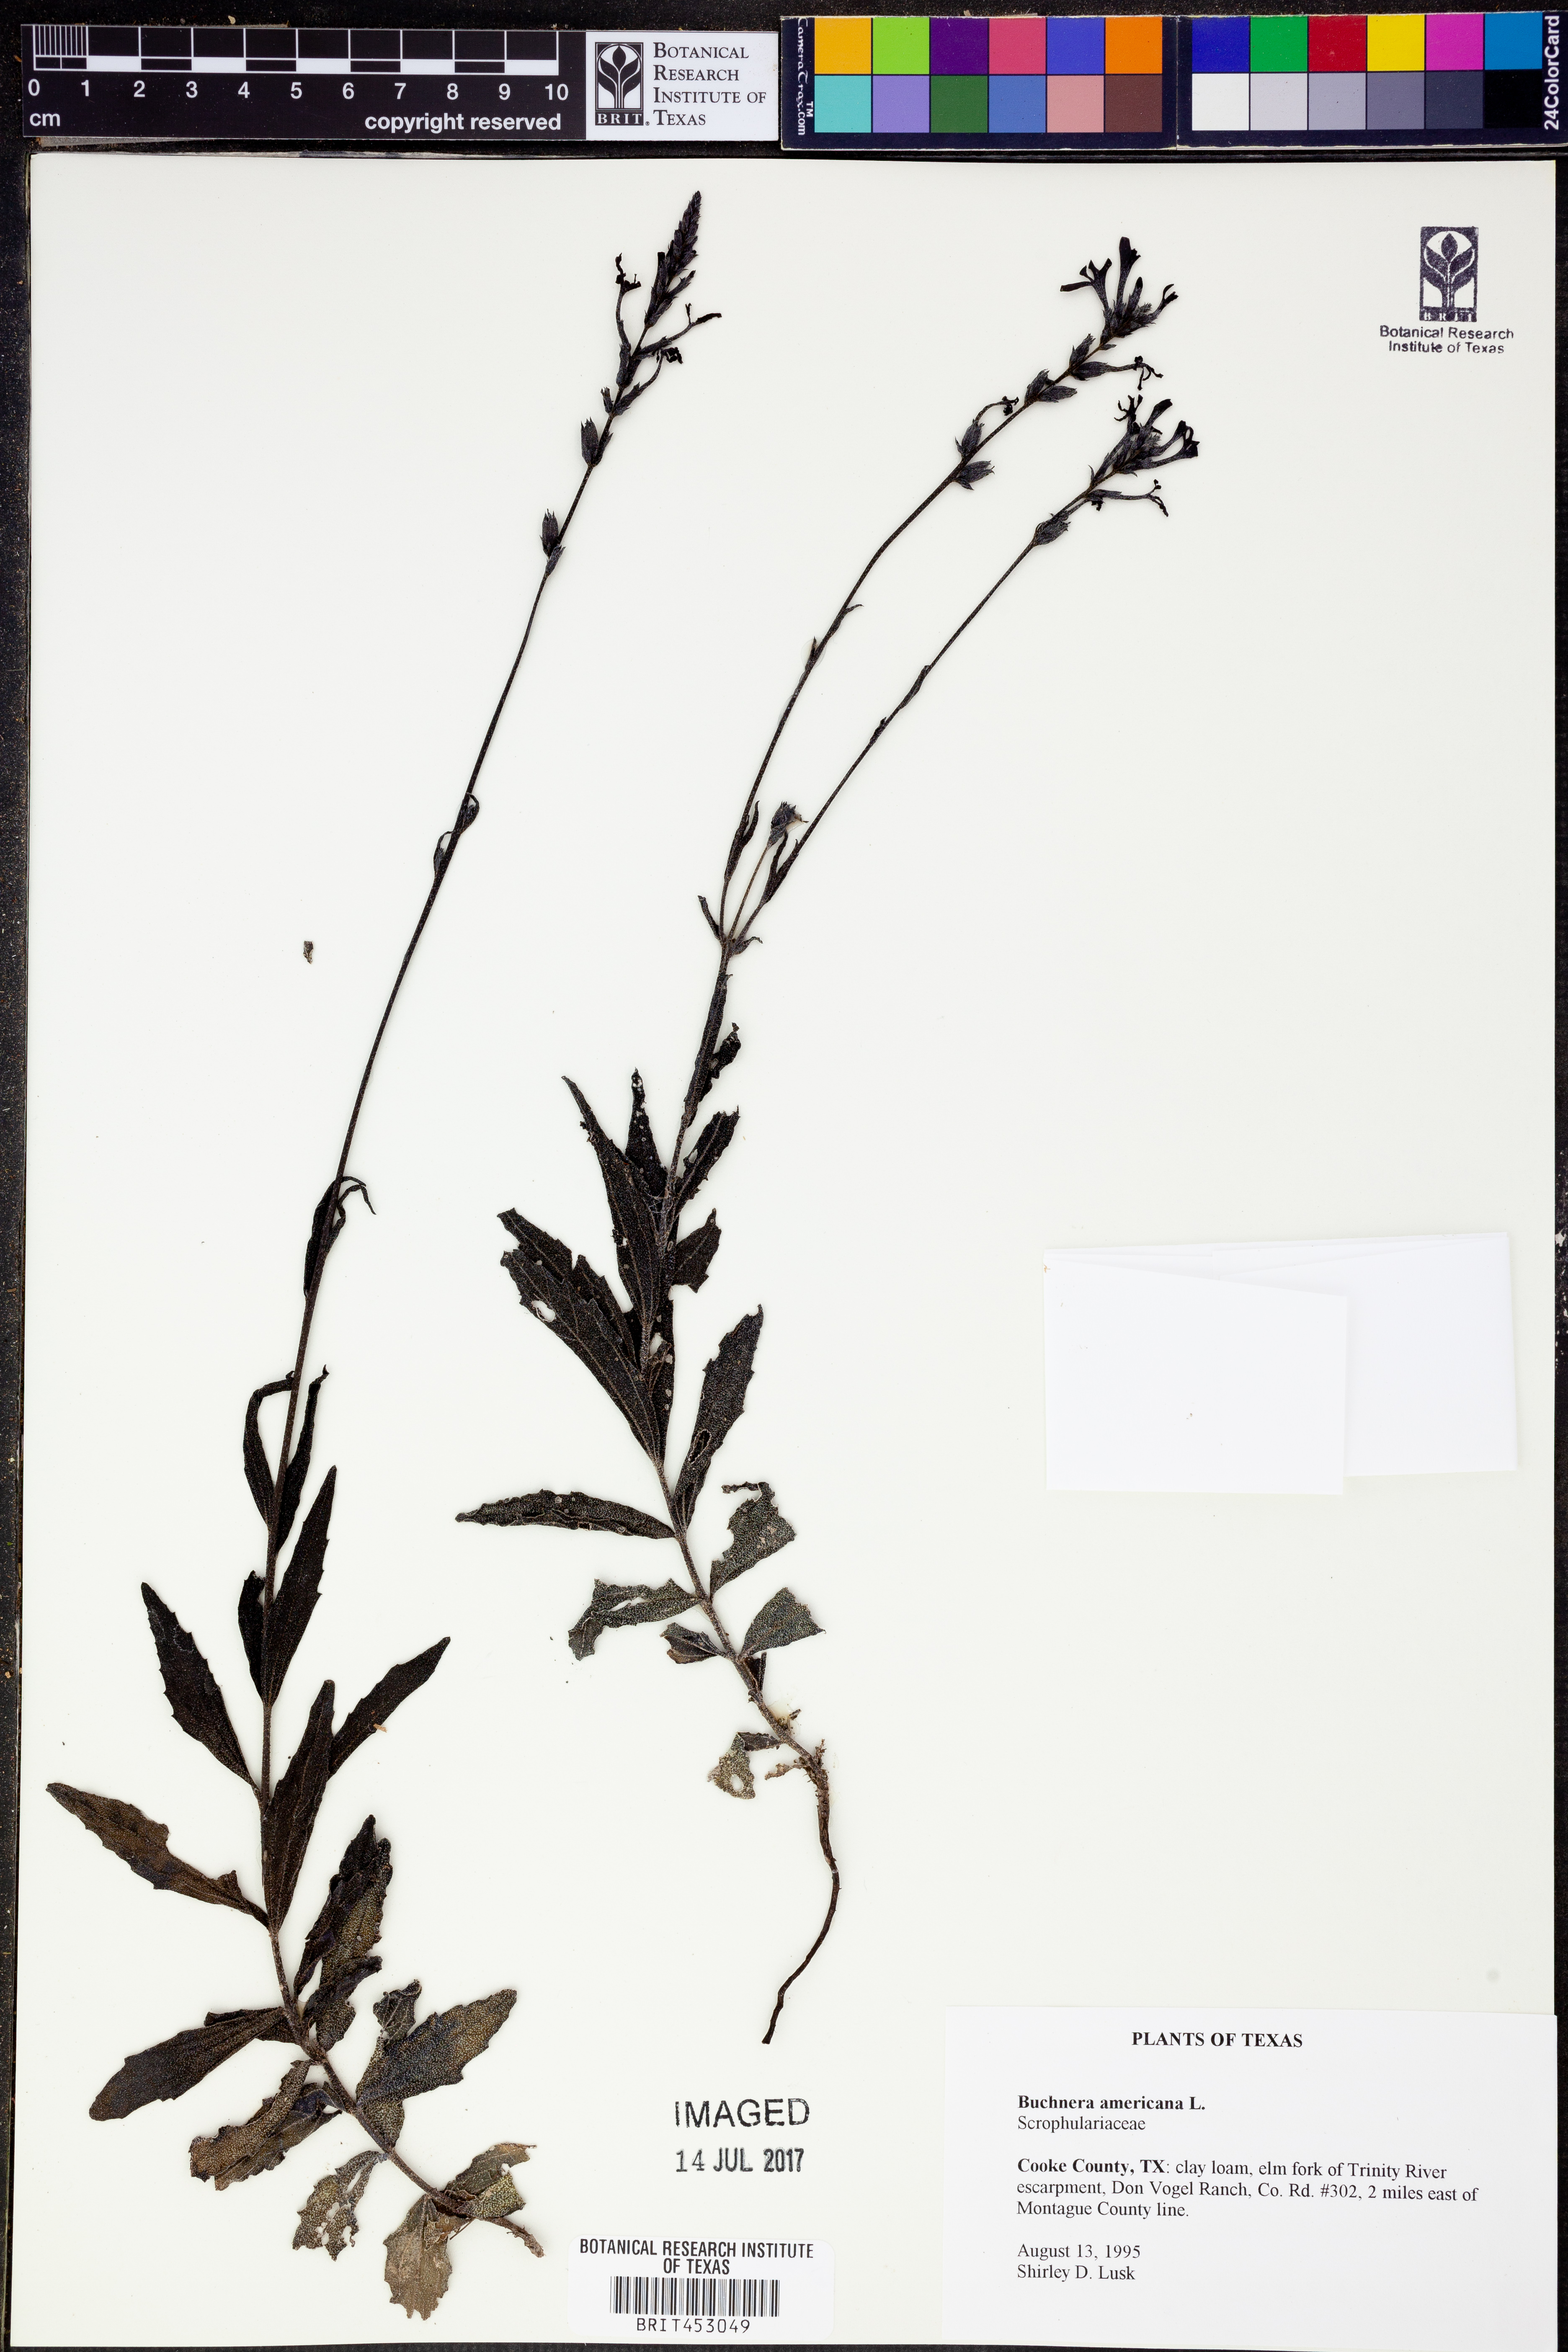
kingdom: Plantae
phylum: Tracheophyta
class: Magnoliopsida
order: Lamiales
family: Orobanchaceae
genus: Buchnera
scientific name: Buchnera americana
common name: American bluehearts
